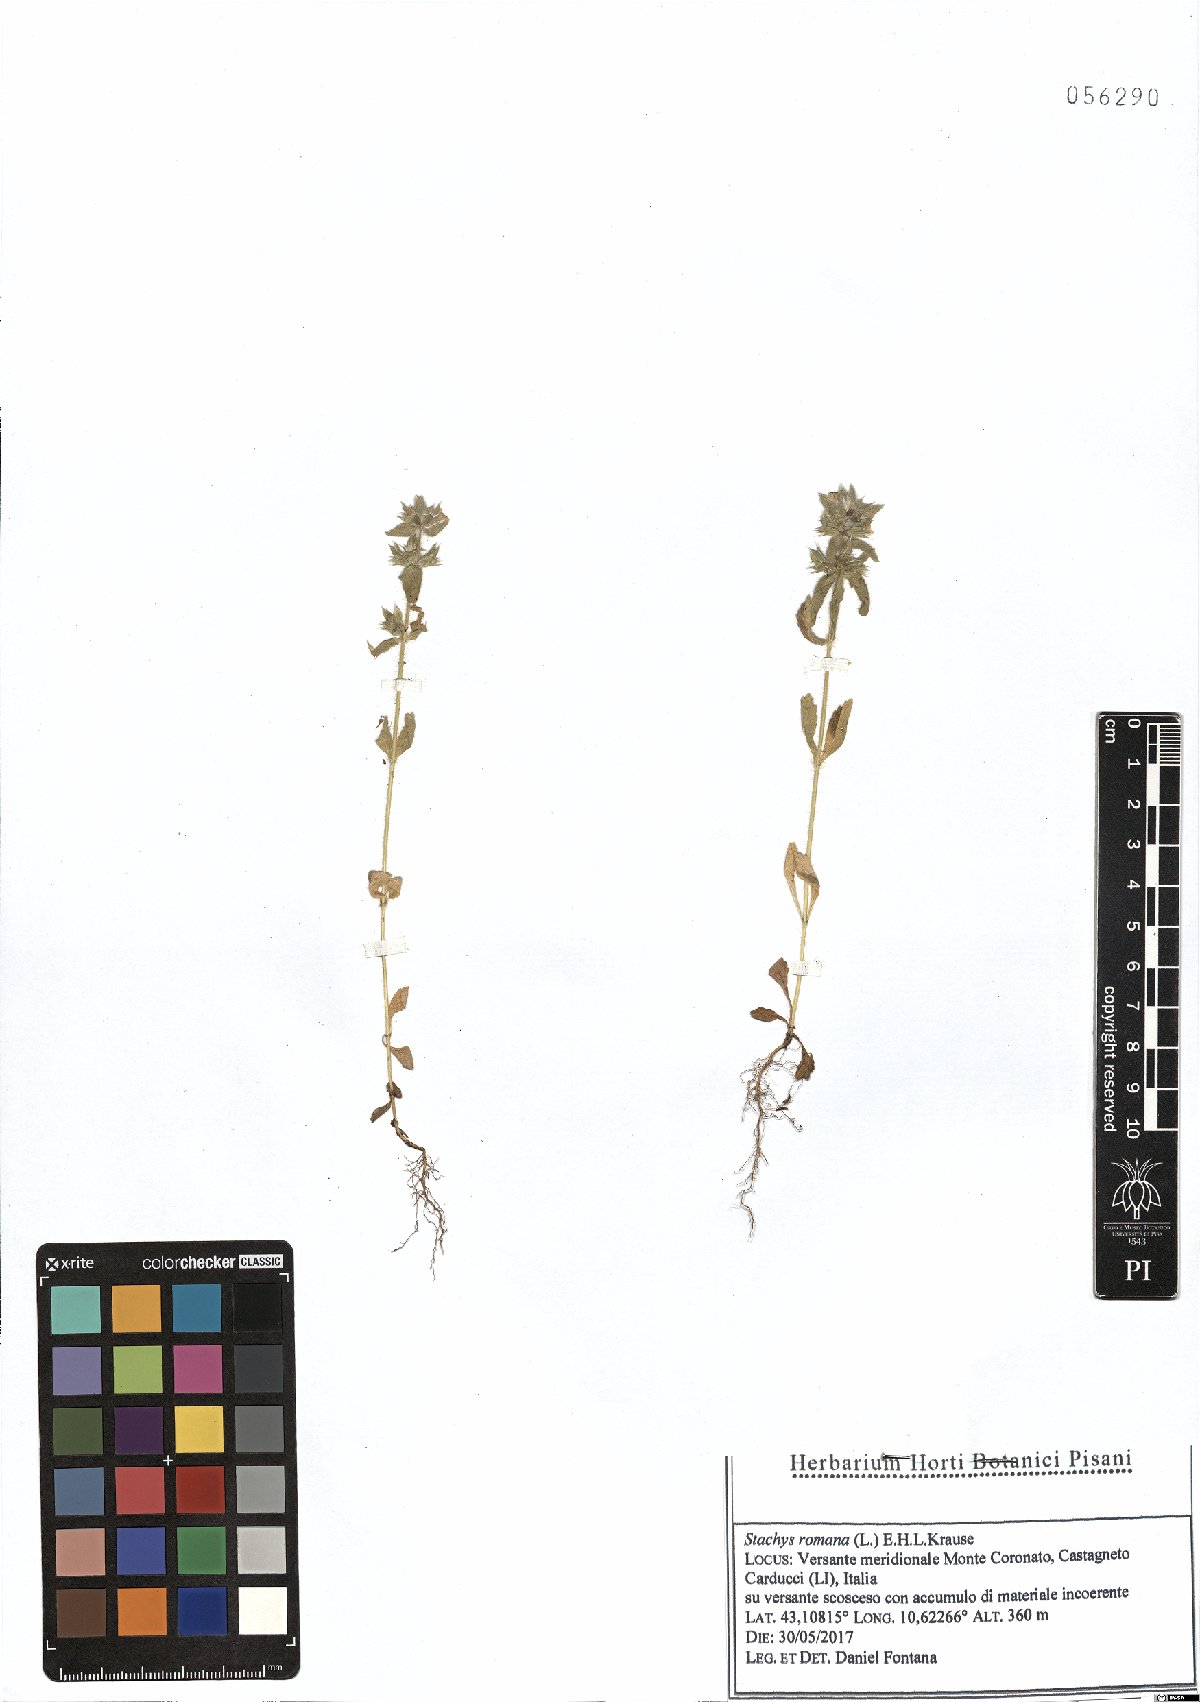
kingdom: Plantae
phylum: Tracheophyta
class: Magnoliopsida
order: Lamiales
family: Lamiaceae
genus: Sideritis
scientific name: Sideritis romana
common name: Simplebeak ironwort
